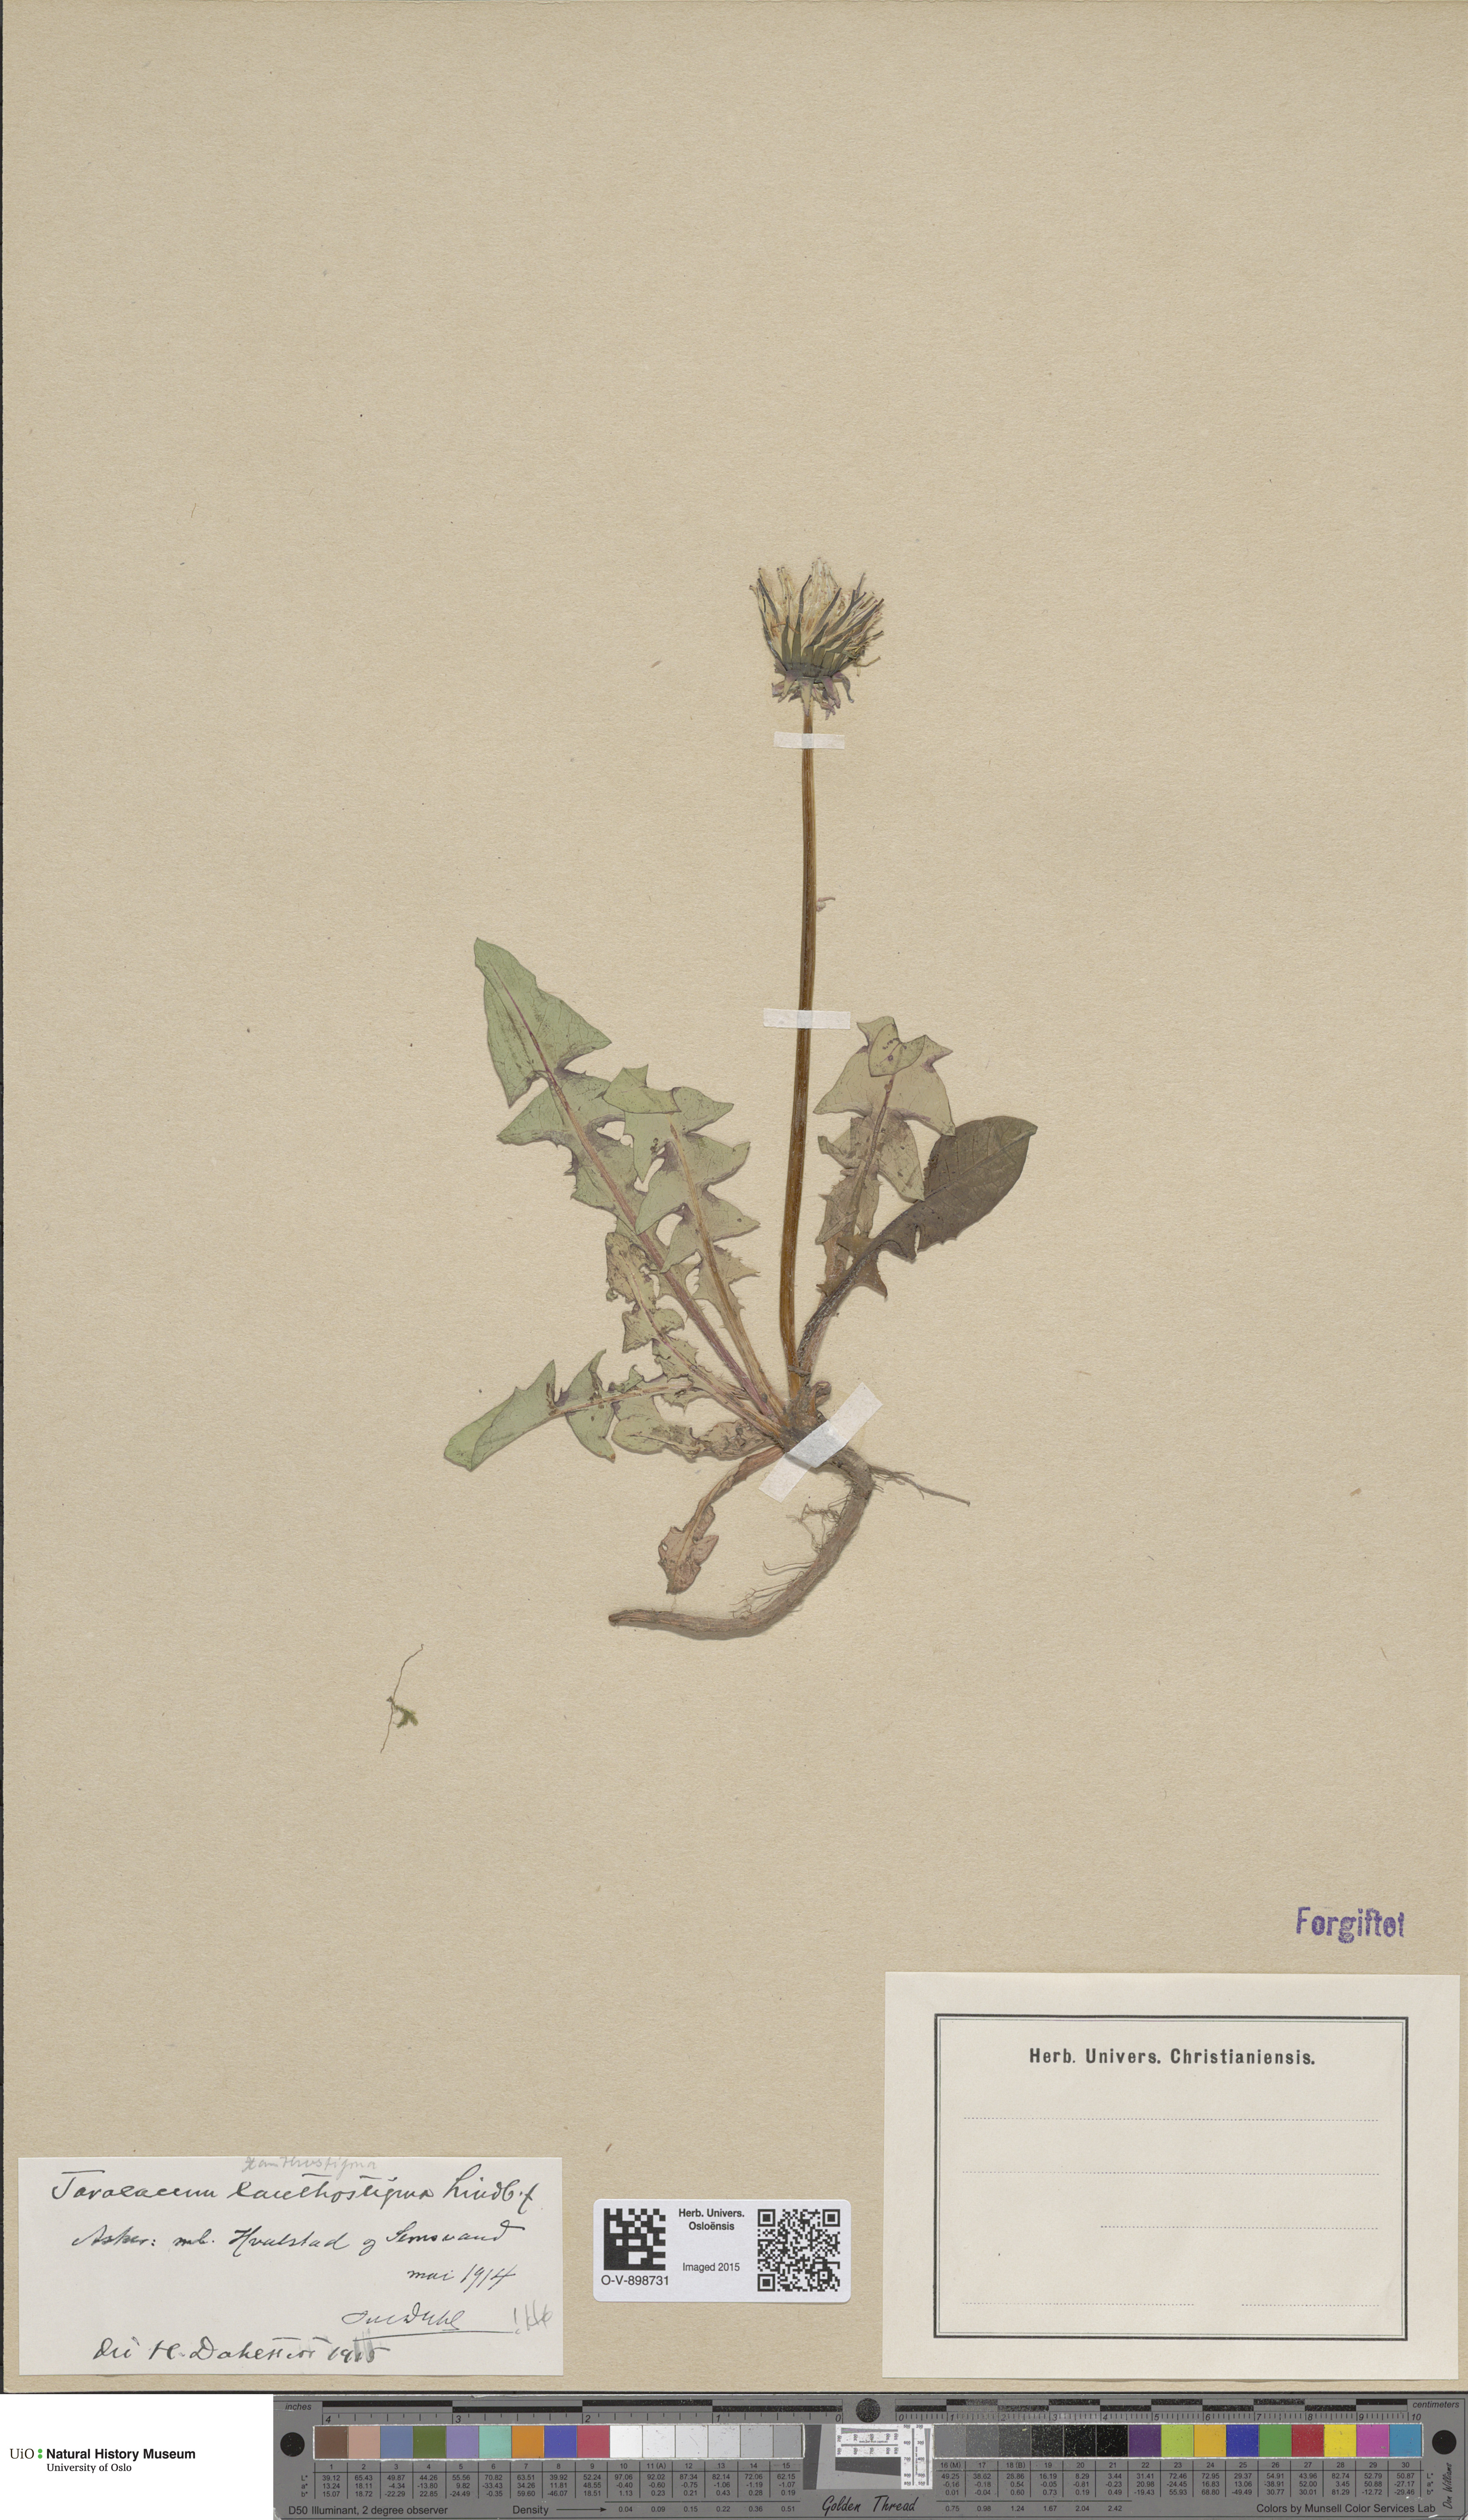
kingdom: Plantae
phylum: Tracheophyta
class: Magnoliopsida
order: Asterales
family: Asteraceae
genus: Taraxacum
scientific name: Taraxacum xanthostigma
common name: Ochre-styled dandelion
